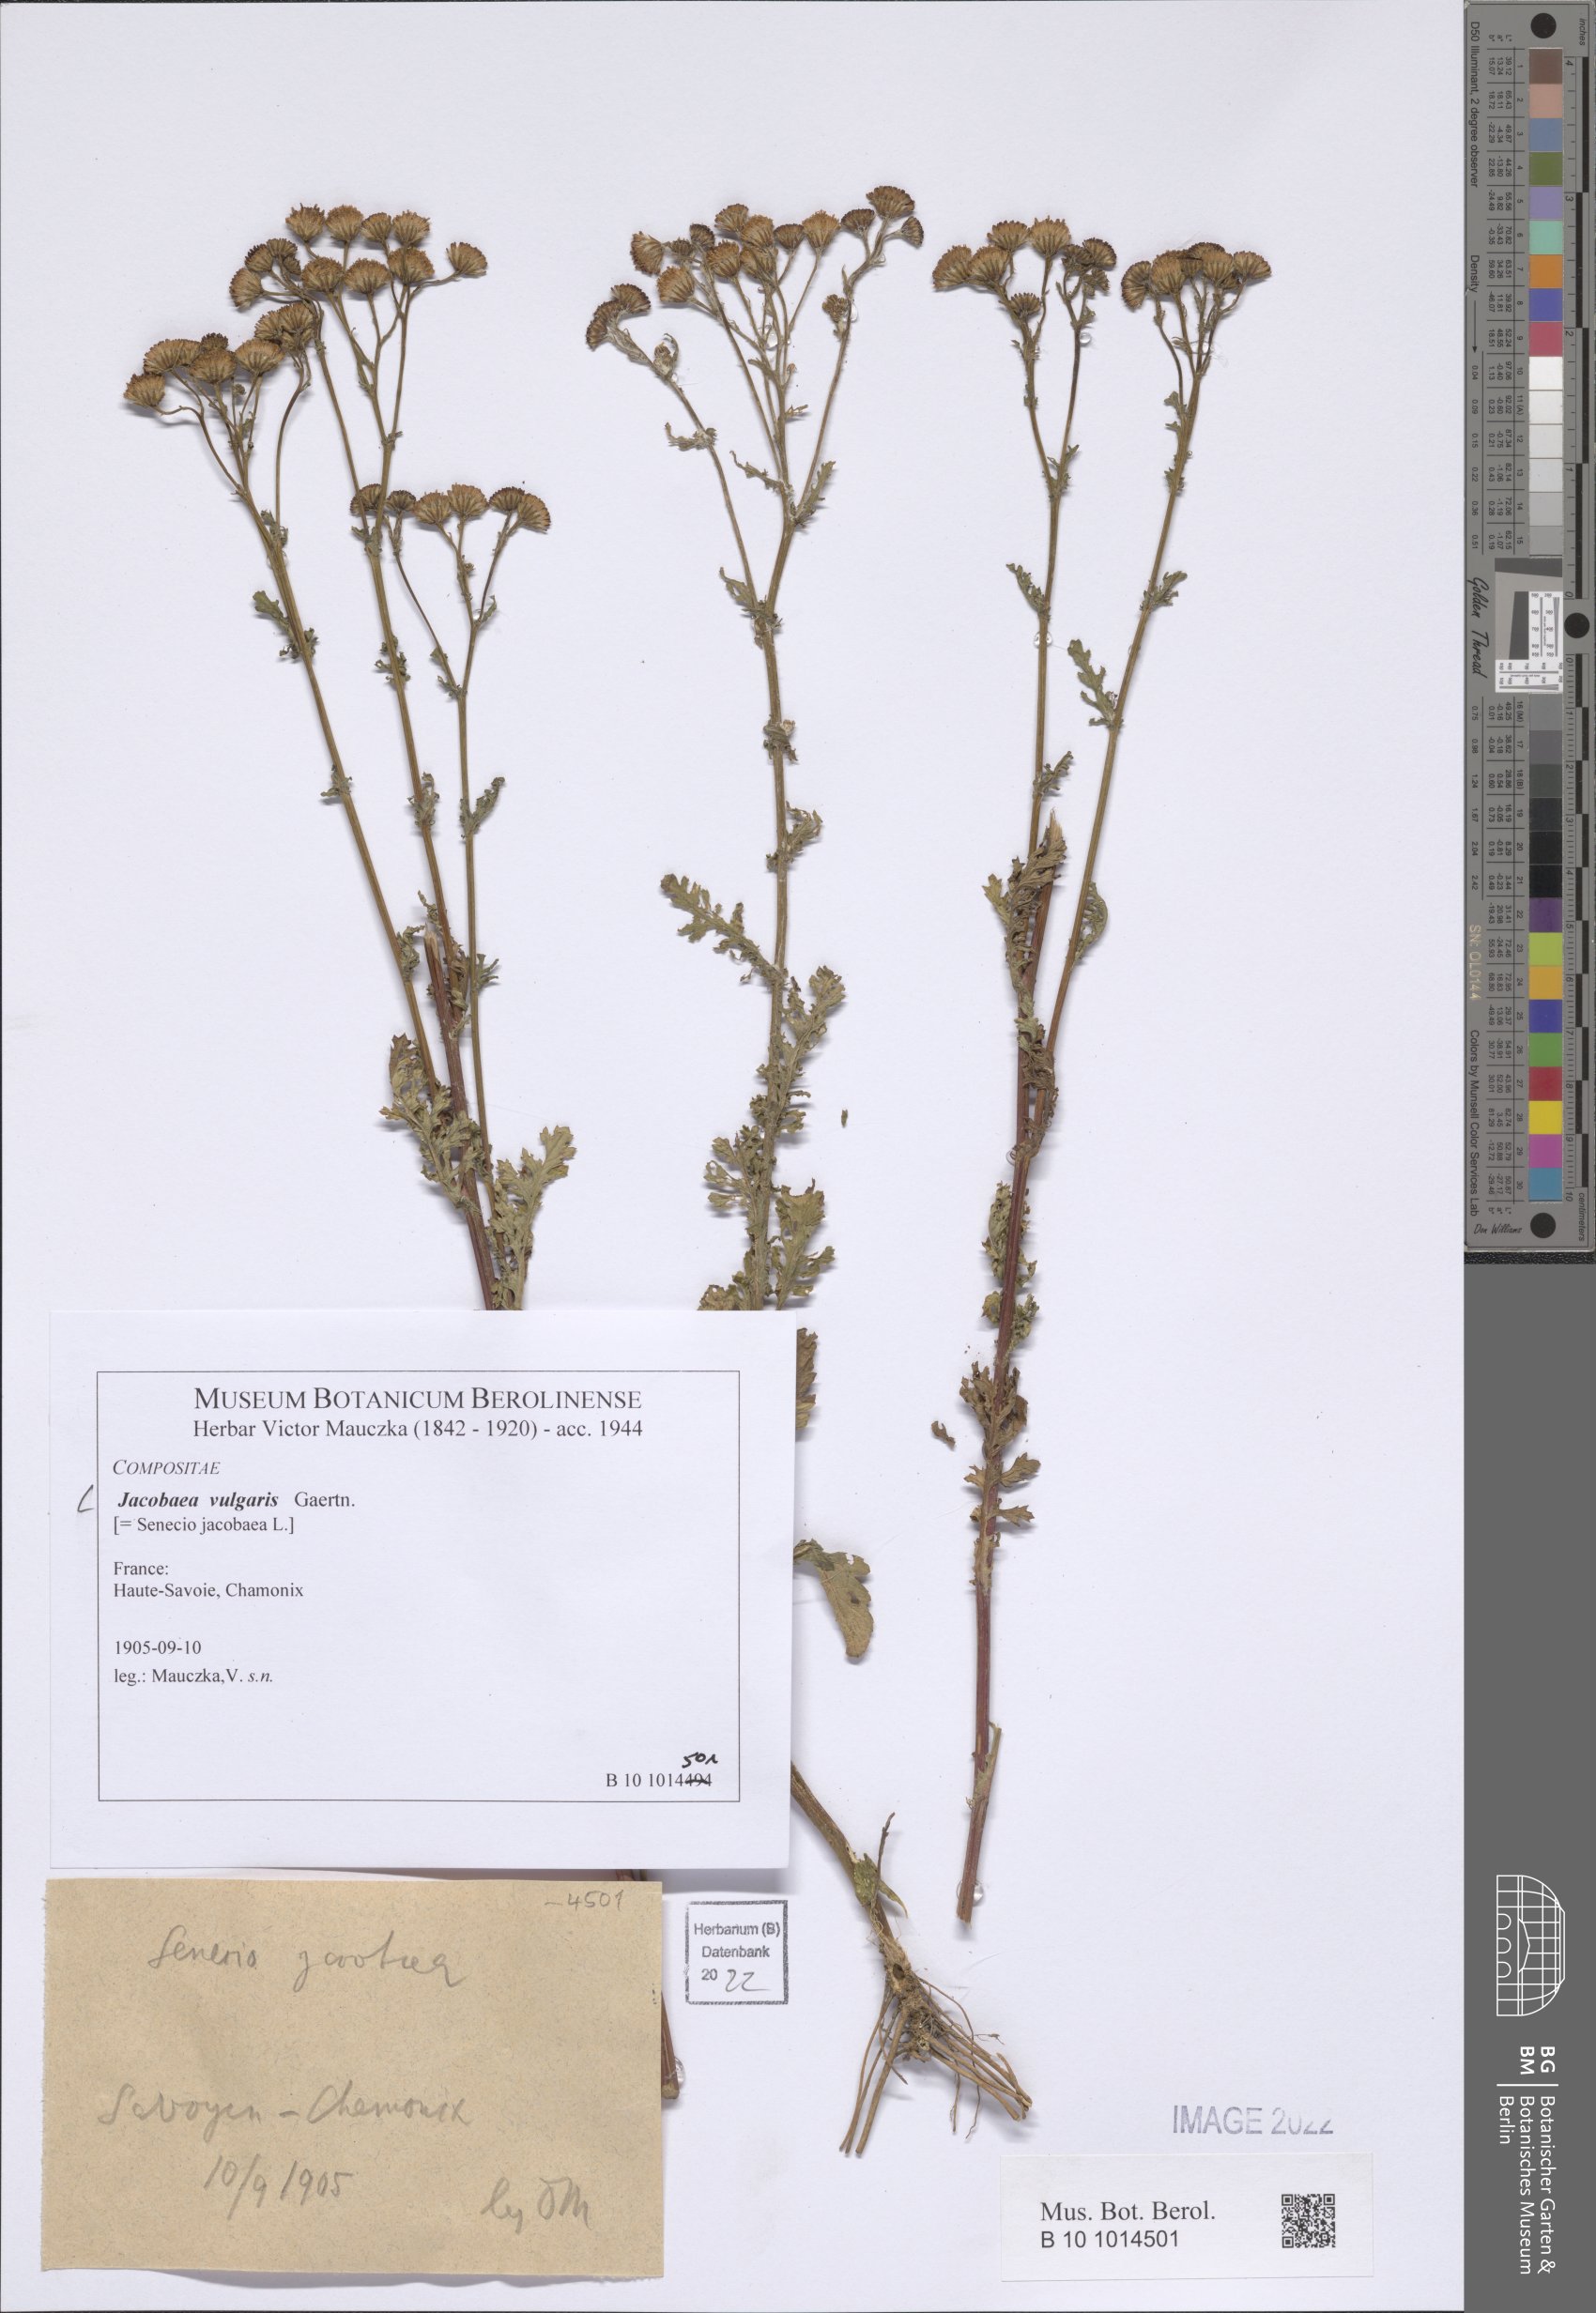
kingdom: Plantae
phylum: Tracheophyta
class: Magnoliopsida
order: Asterales
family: Asteraceae
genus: Jacobaea
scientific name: Jacobaea vulgaris
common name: Stinking willie
